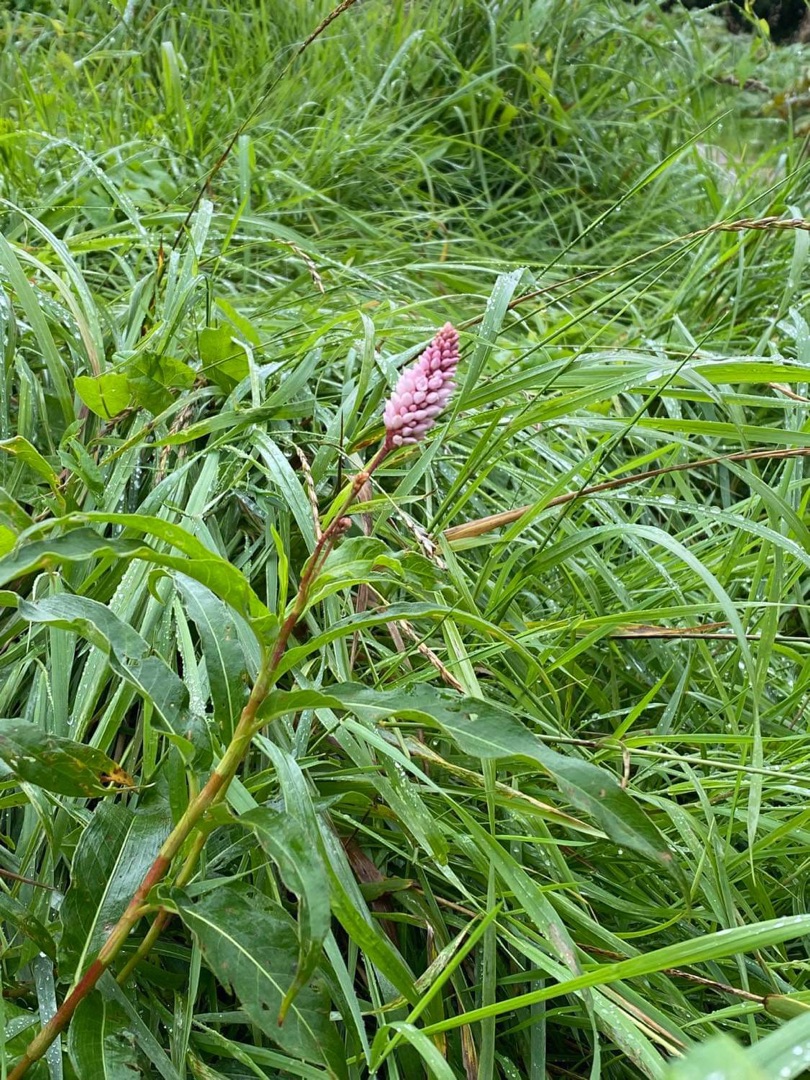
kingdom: Plantae
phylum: Tracheophyta
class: Magnoliopsida
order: Caryophyllales
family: Polygonaceae
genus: Persicaria
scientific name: Persicaria amphibia
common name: Vand-pileurt
